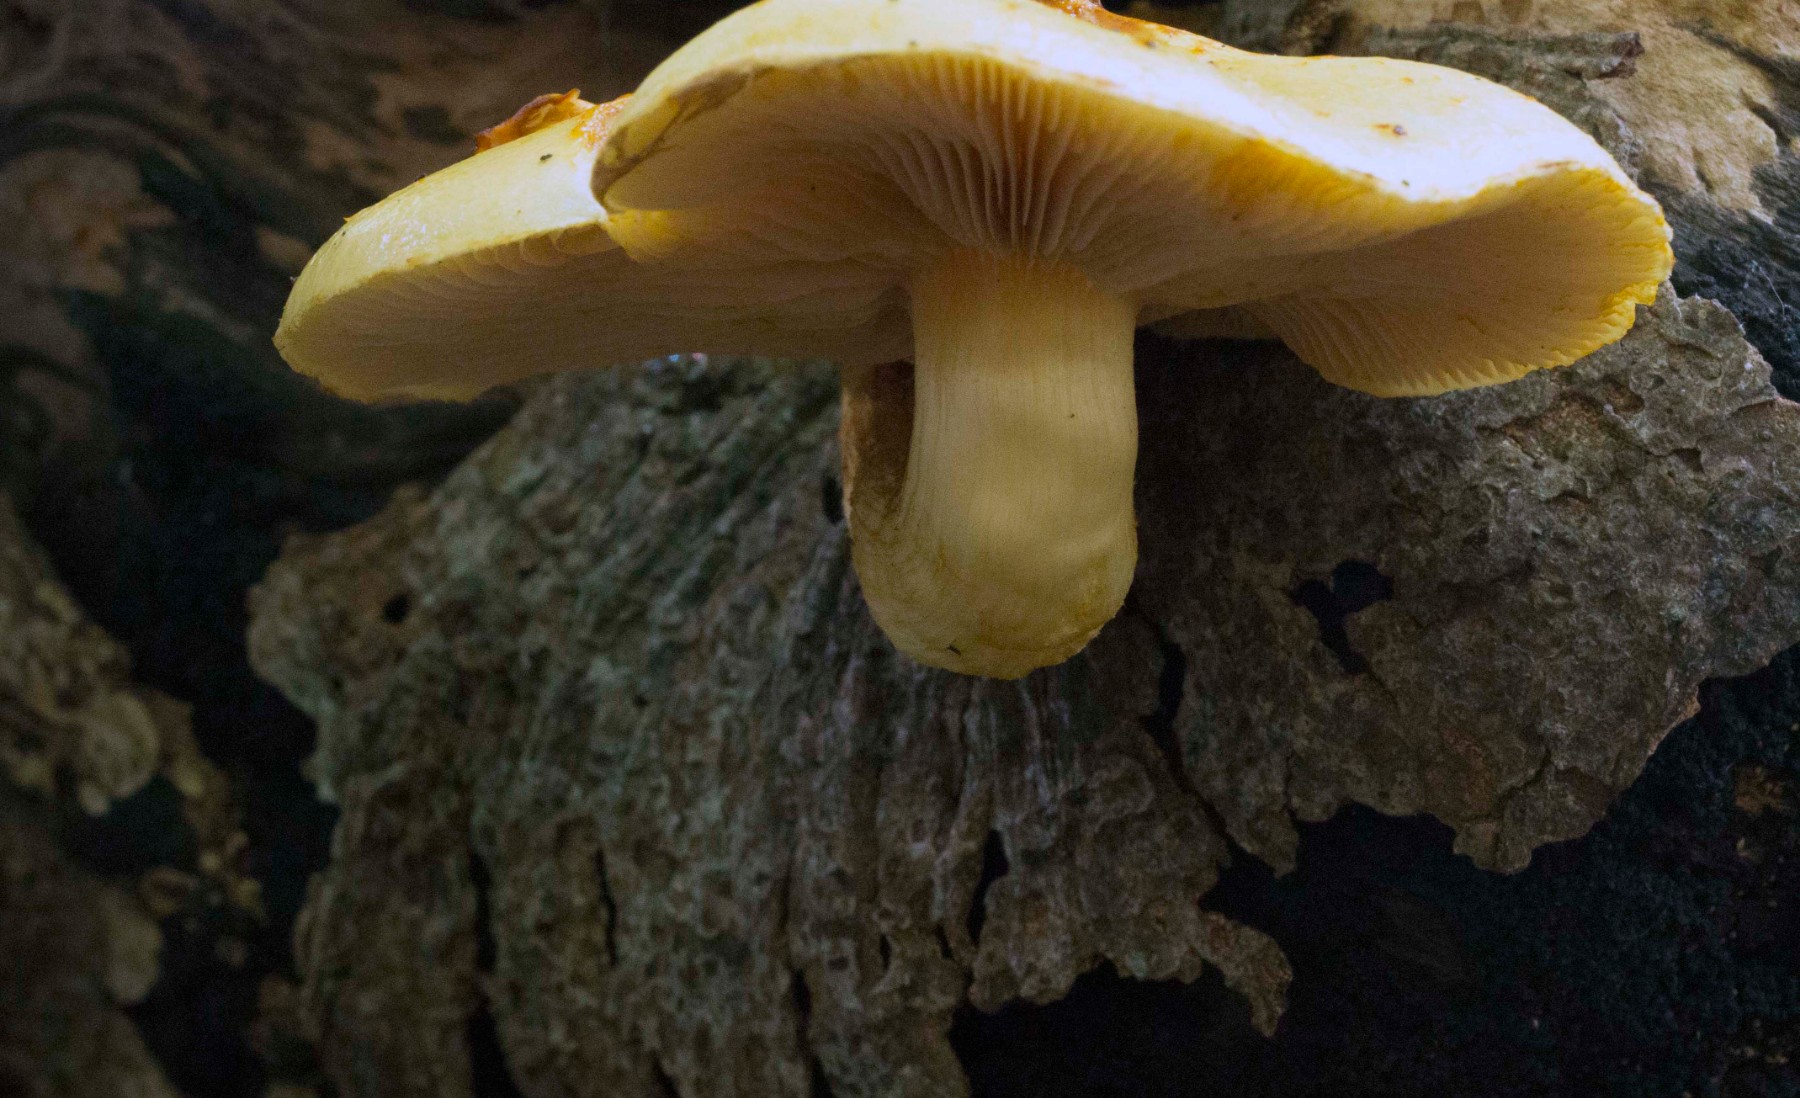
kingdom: Fungi
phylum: Basidiomycota
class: Agaricomycetes
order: Agaricales
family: Strophariaceae
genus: Pholiota
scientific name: Pholiota adiposa
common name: højtsiddende skælhat
